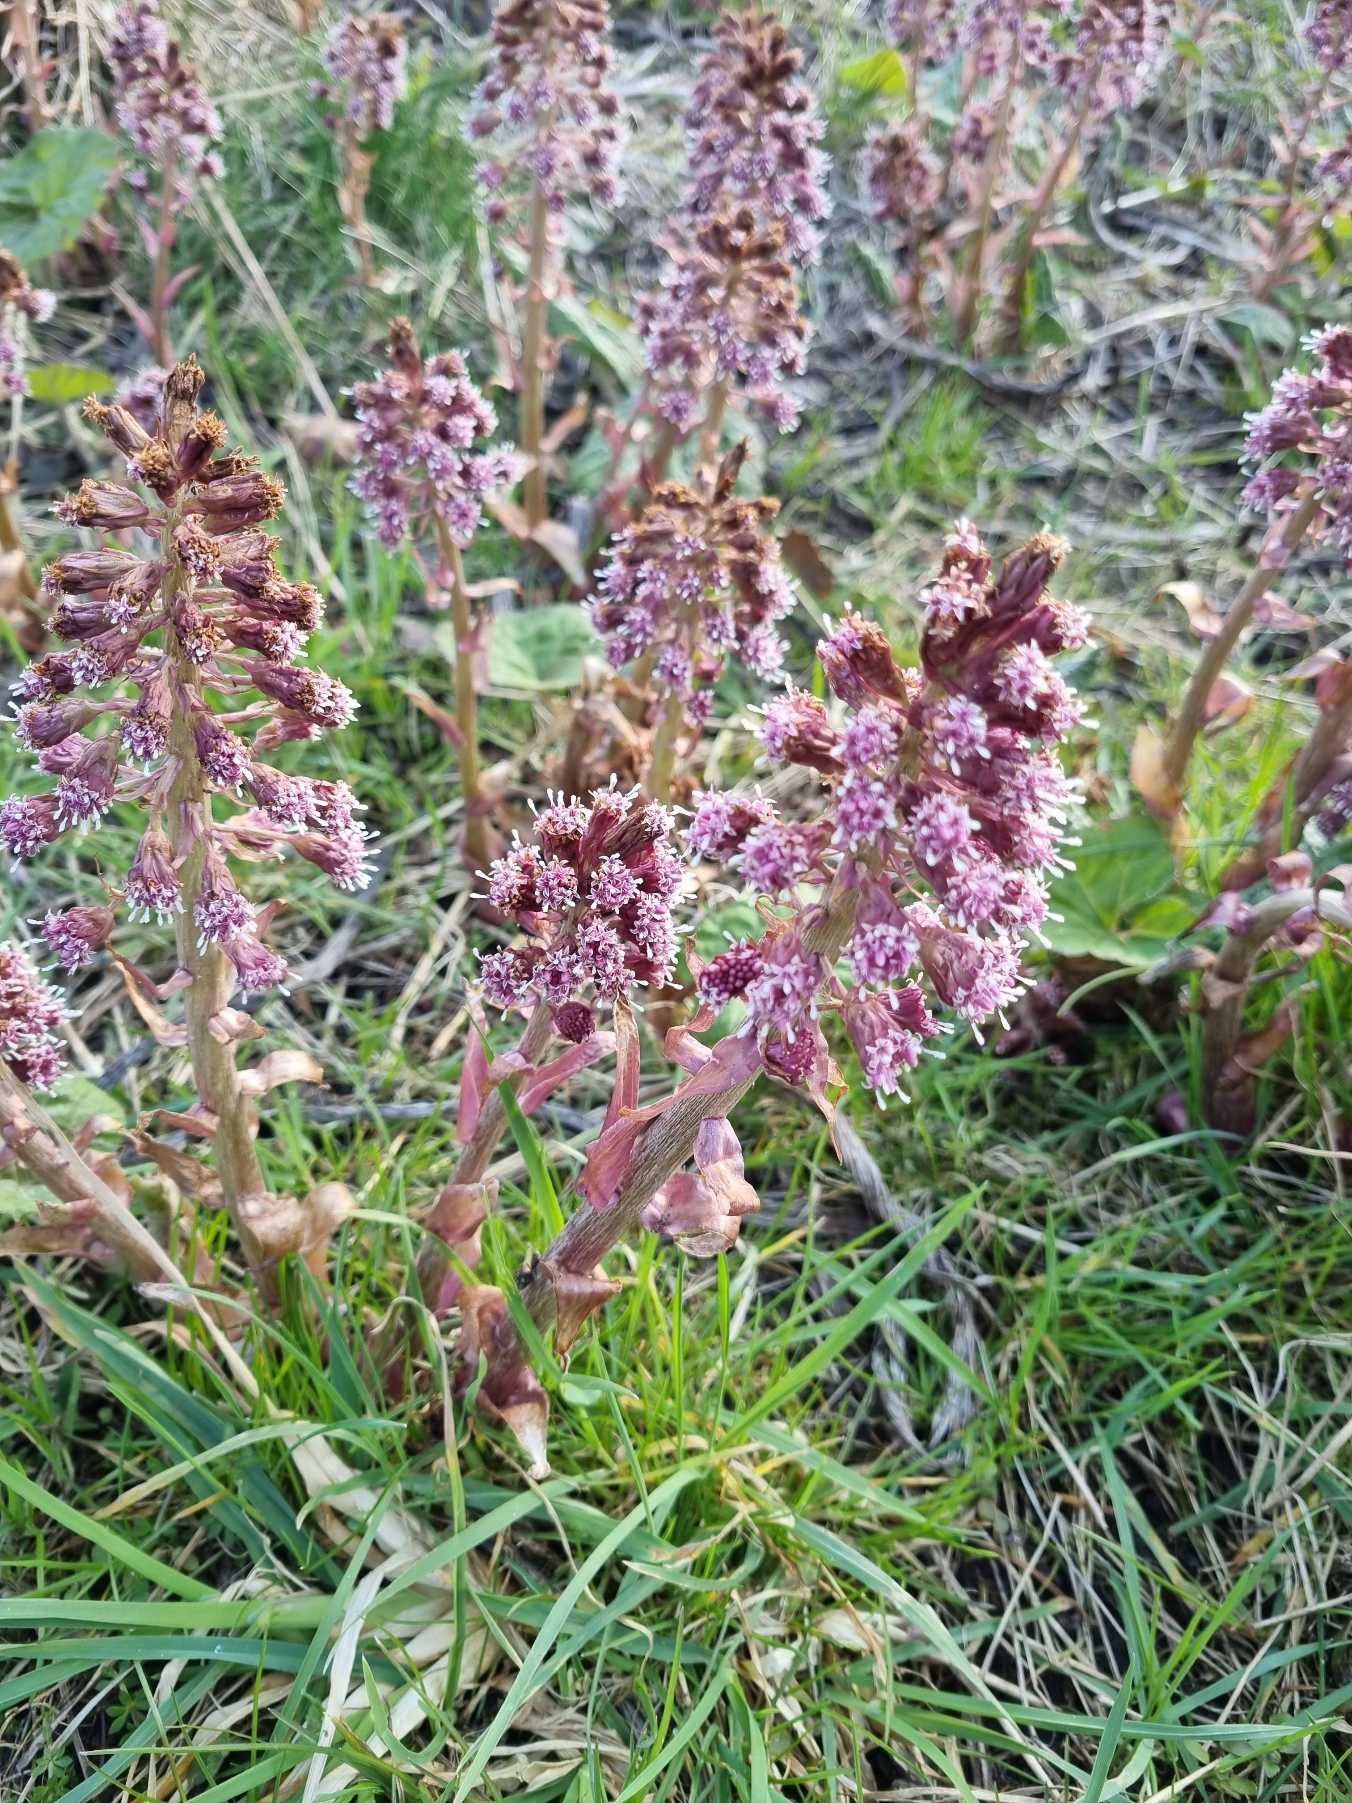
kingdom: Plantae
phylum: Tracheophyta
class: Magnoliopsida
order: Asterales
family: Asteraceae
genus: Petasites
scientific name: Petasites hybridus
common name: Rød hestehov
